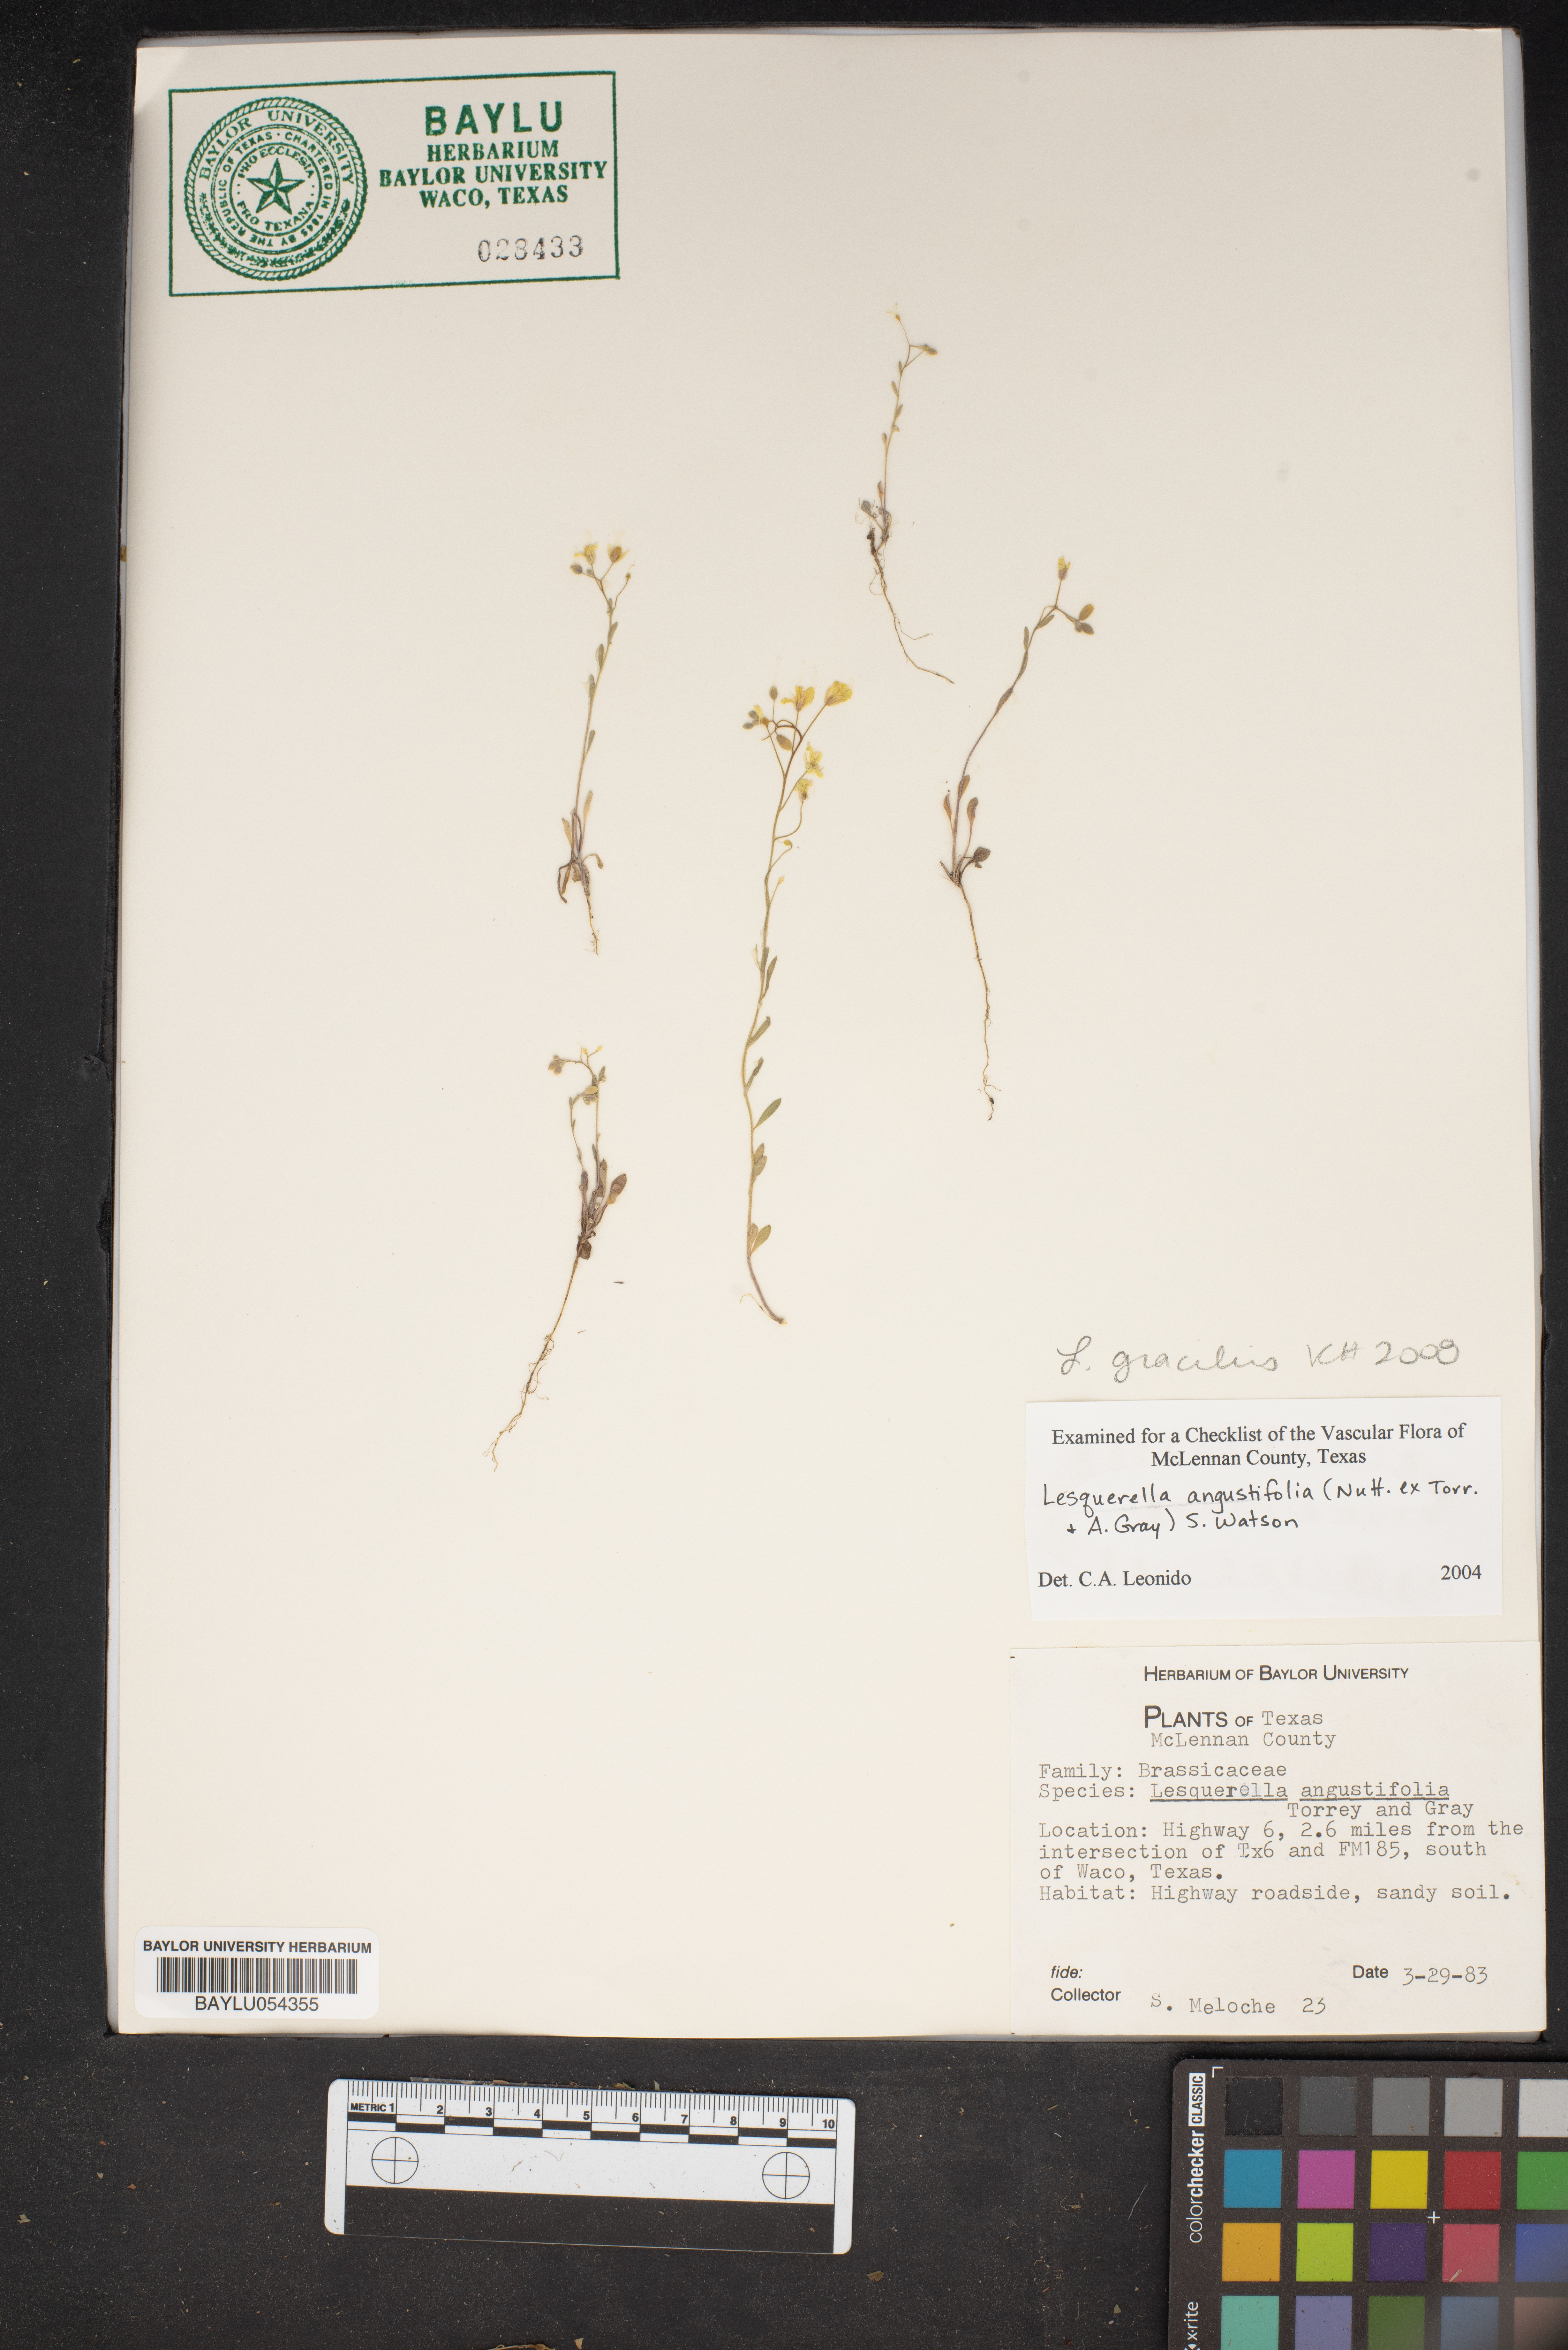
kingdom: Plantae
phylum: Tracheophyta
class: Magnoliopsida
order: Brassicales
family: Brassicaceae
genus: Physaria
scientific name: Physaria angustifolia
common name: Threadleaf bladderpod
